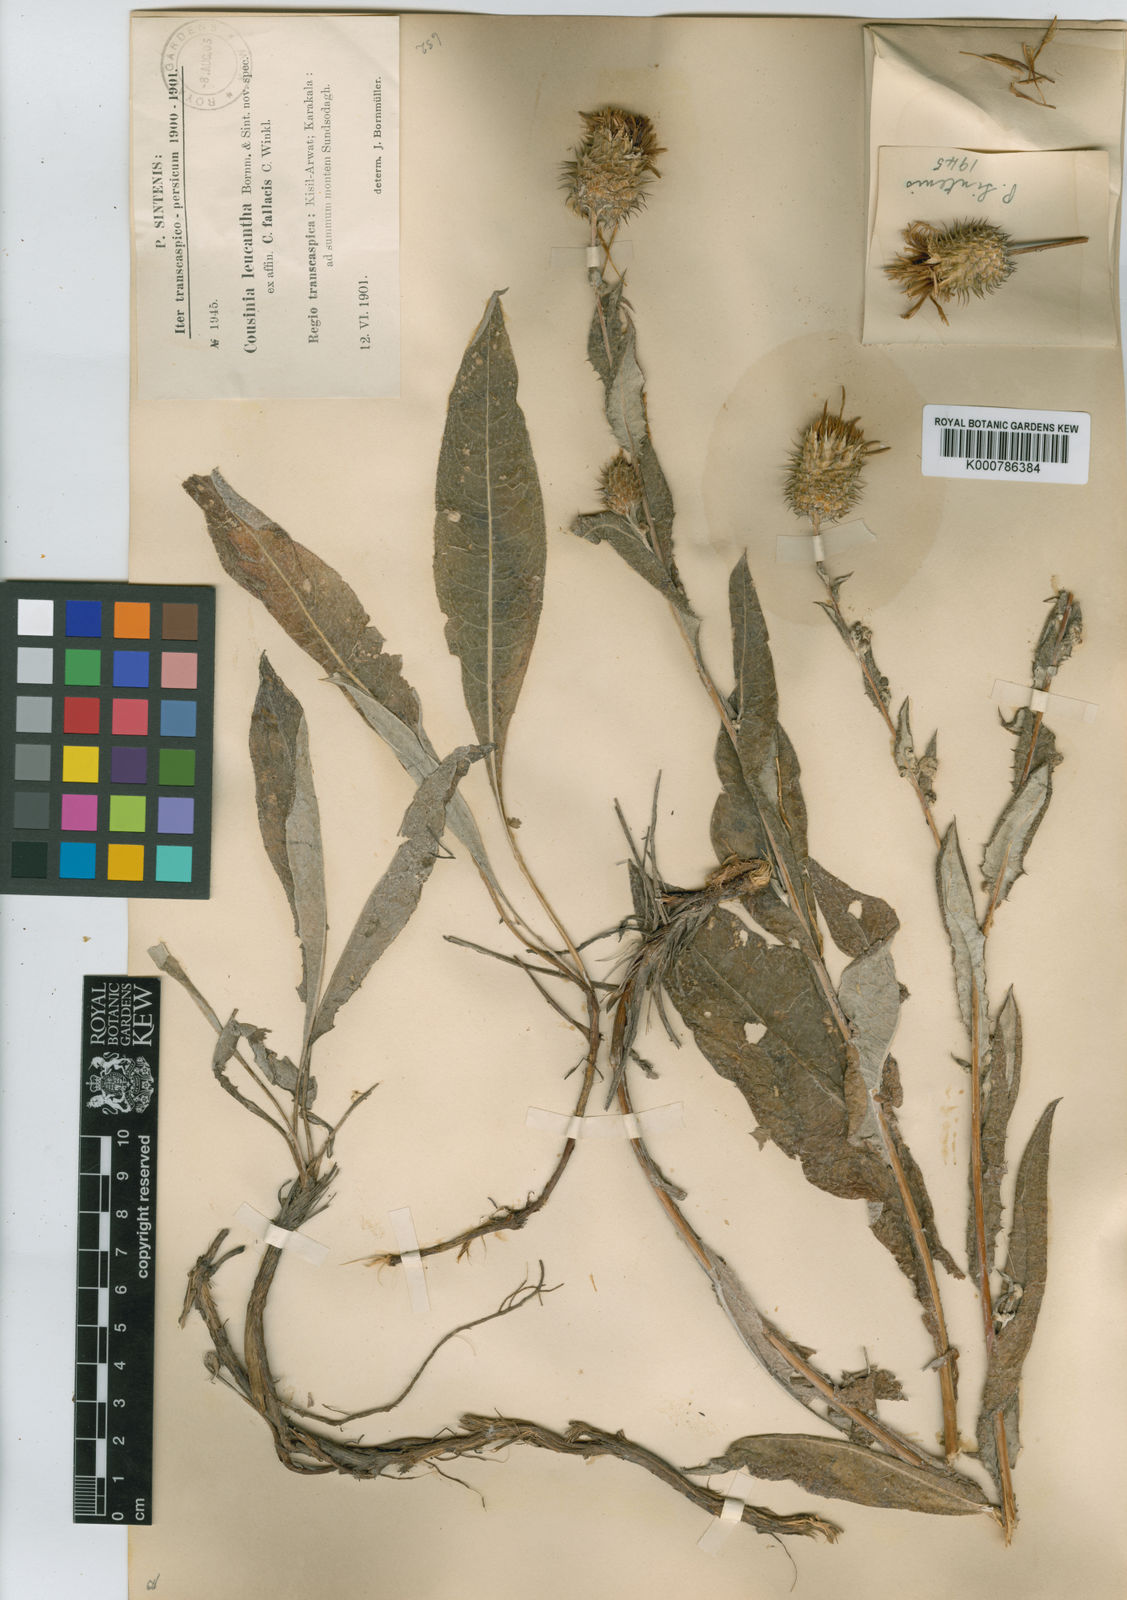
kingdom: Plantae
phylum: Tracheophyta
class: Magnoliopsida
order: Asterales
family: Asteraceae
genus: Cousinia
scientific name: Cousinia leucantha
